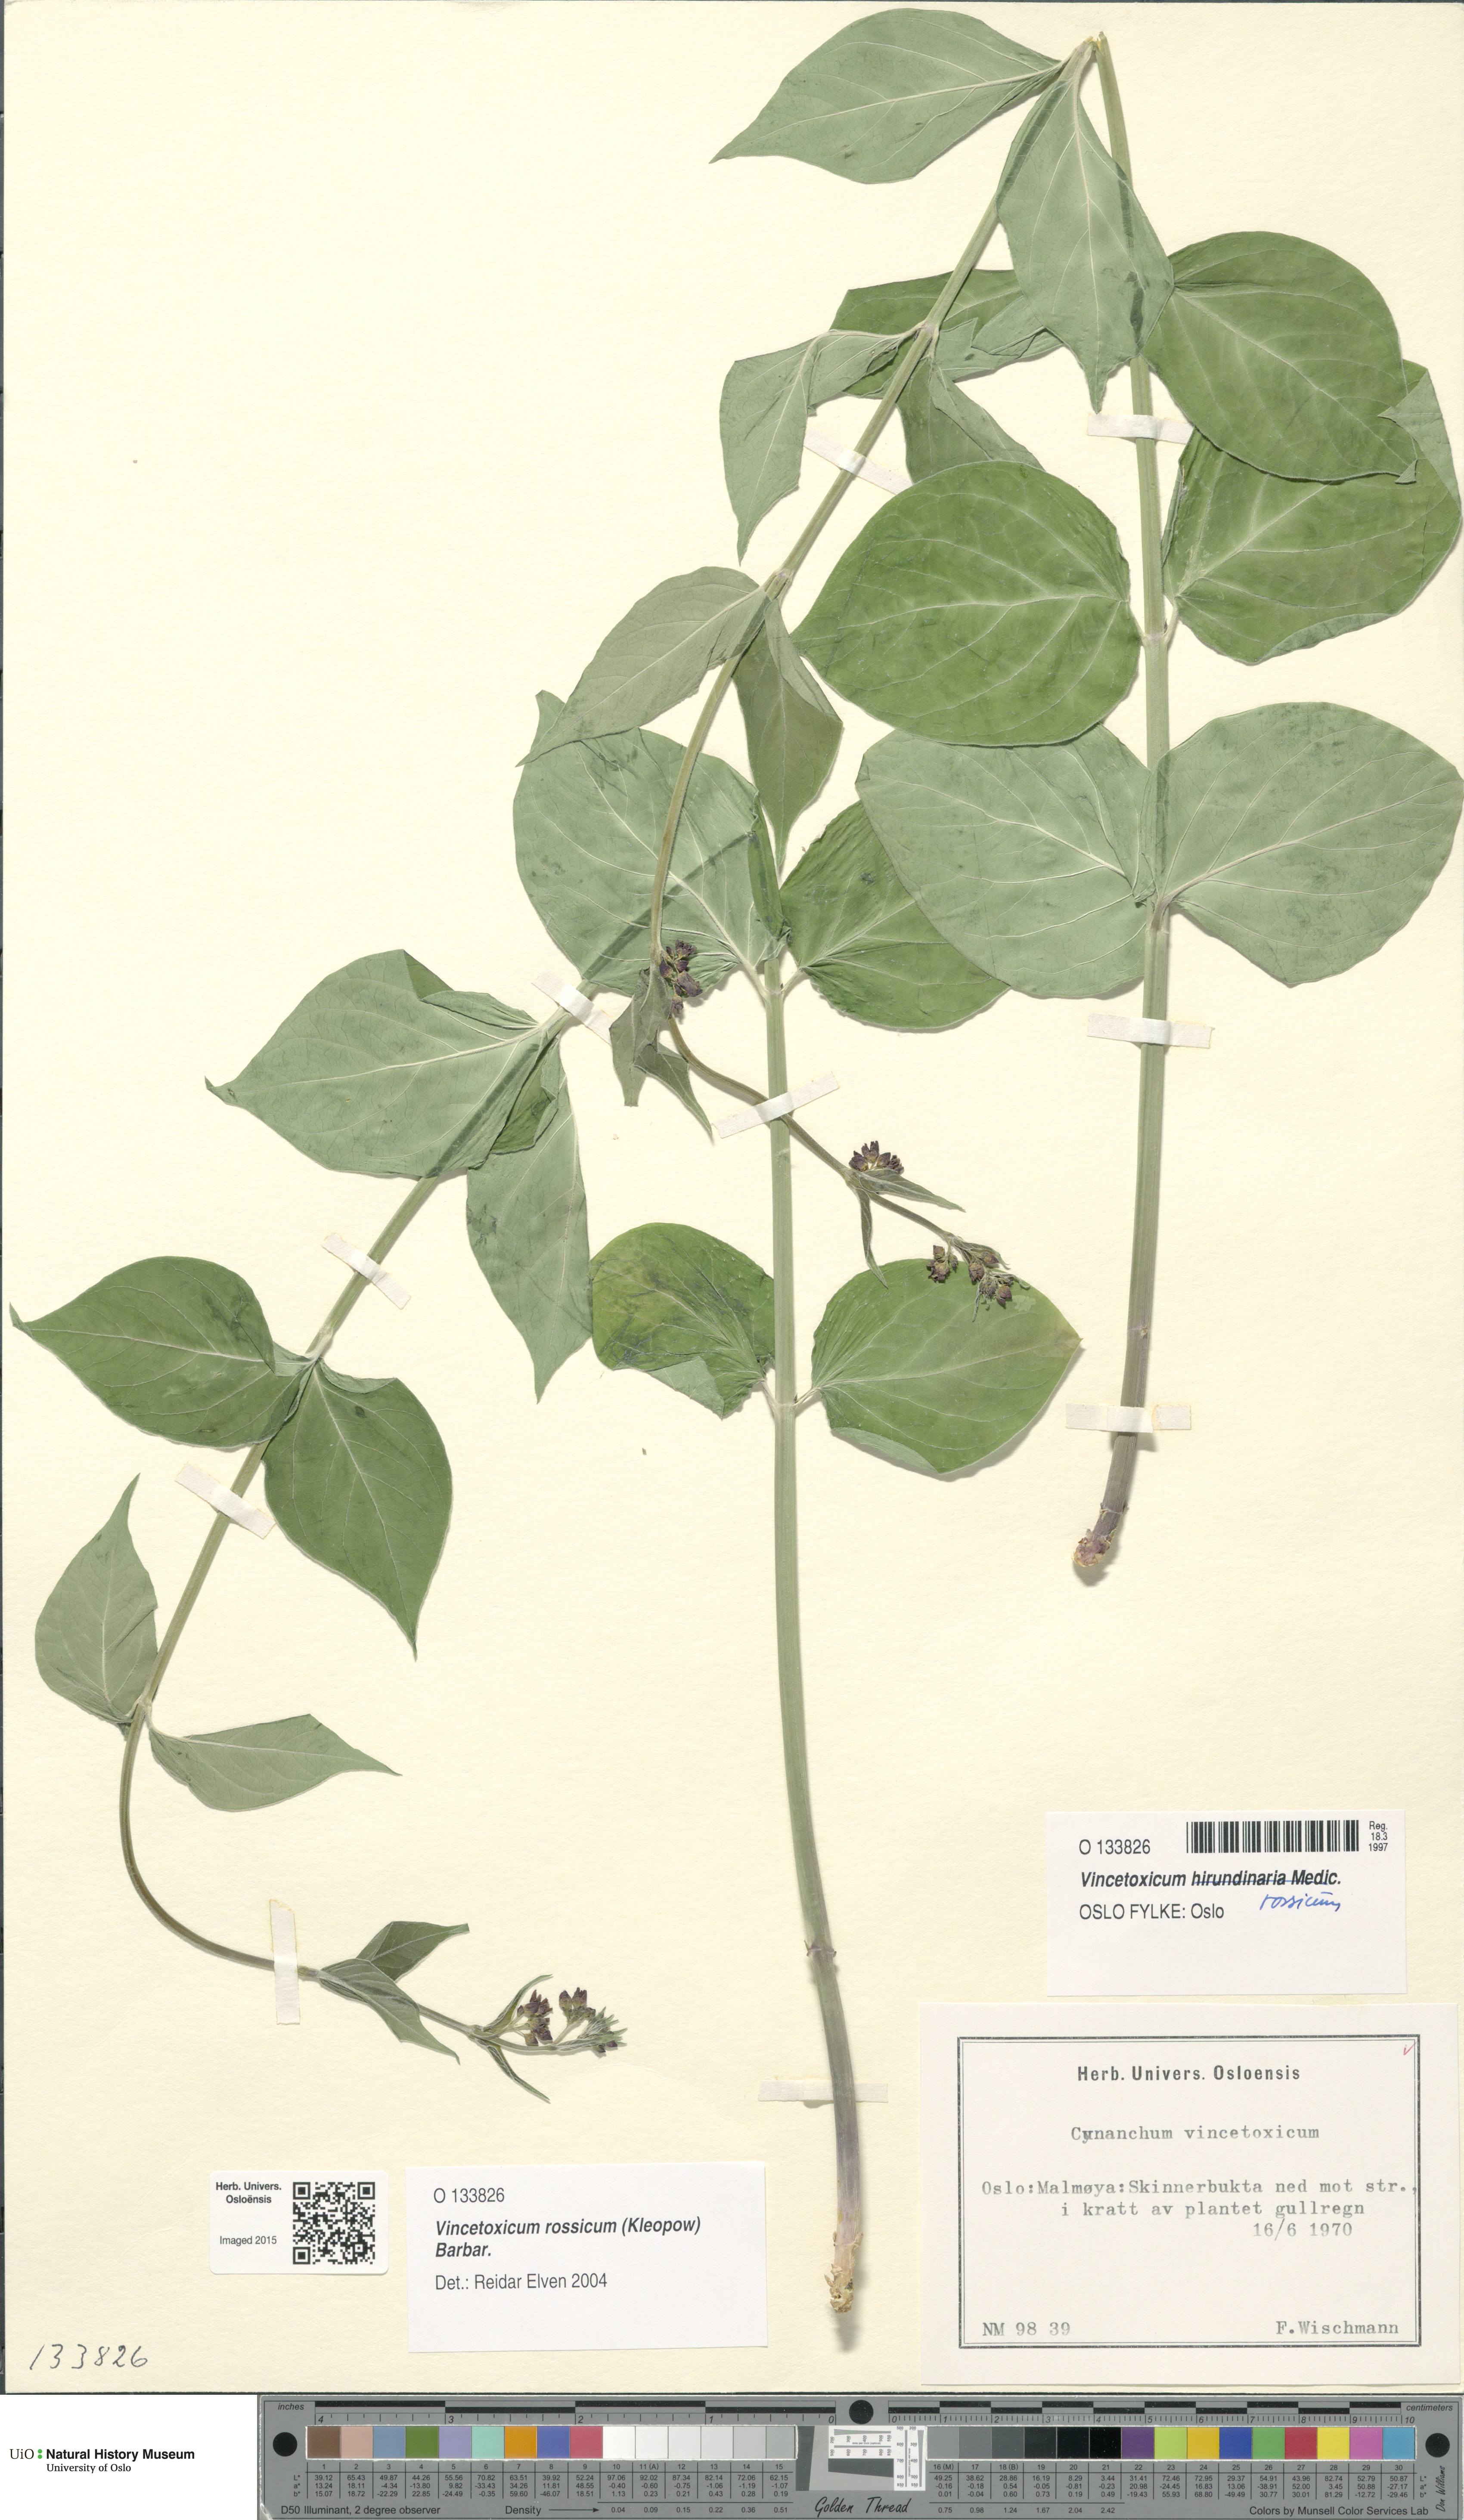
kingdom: Plantae
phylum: Tracheophyta
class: Magnoliopsida
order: Gentianales
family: Apocynaceae
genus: Vincetoxicum
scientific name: Vincetoxicum rossicum
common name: Dog-strangling vine
